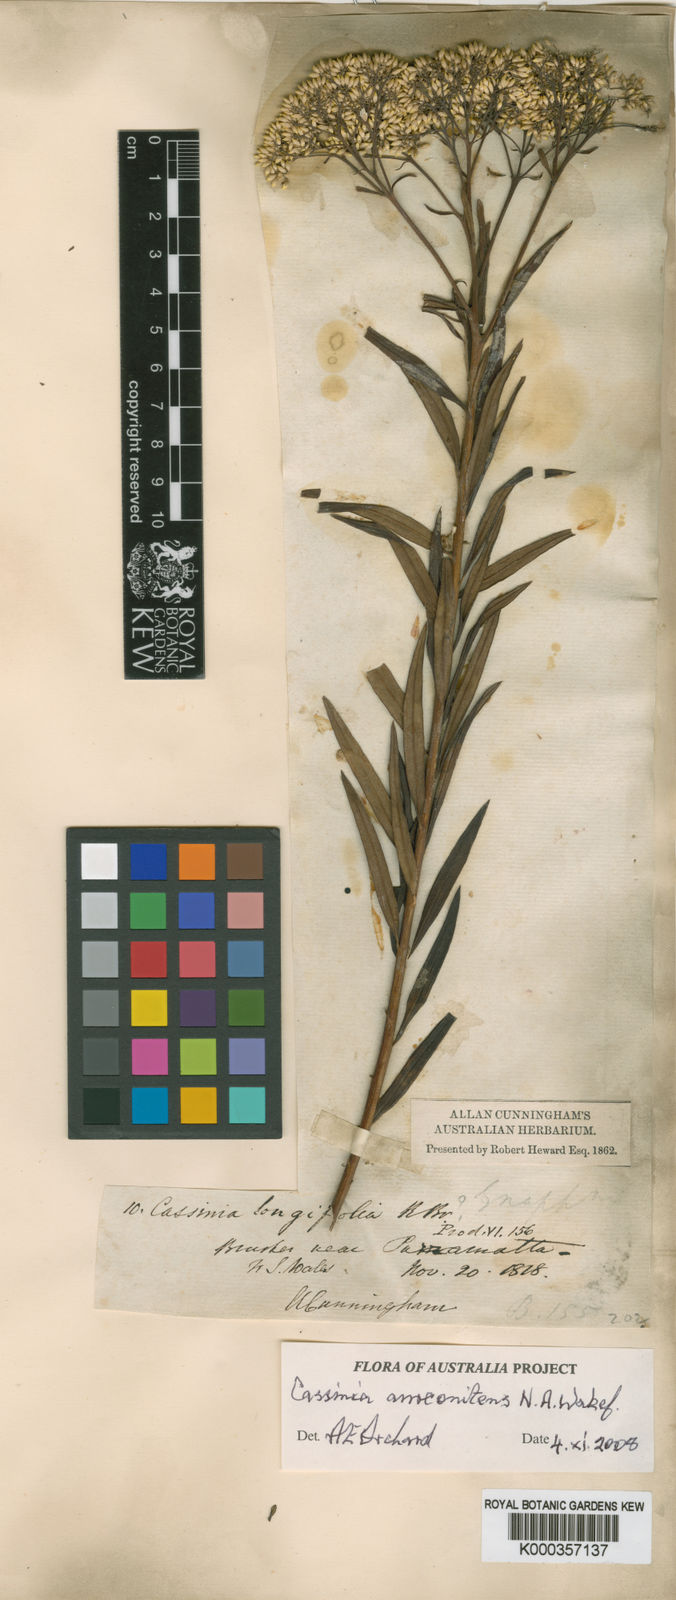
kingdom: Plantae
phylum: Tracheophyta
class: Magnoliopsida
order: Asterales
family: Asteraceae
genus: Cassinia
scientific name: Cassinia aureonitens
